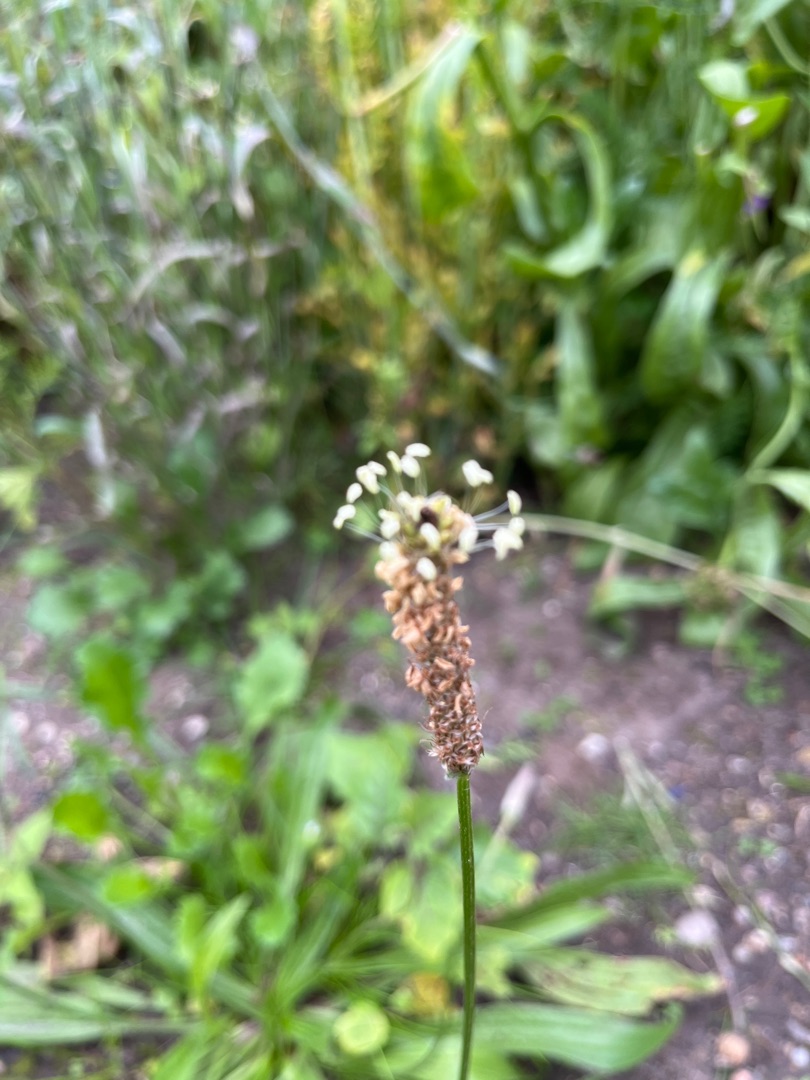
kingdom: Plantae
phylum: Tracheophyta
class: Magnoliopsida
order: Lamiales
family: Plantaginaceae
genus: Plantago
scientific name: Plantago lanceolata
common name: Lancet-vejbred
